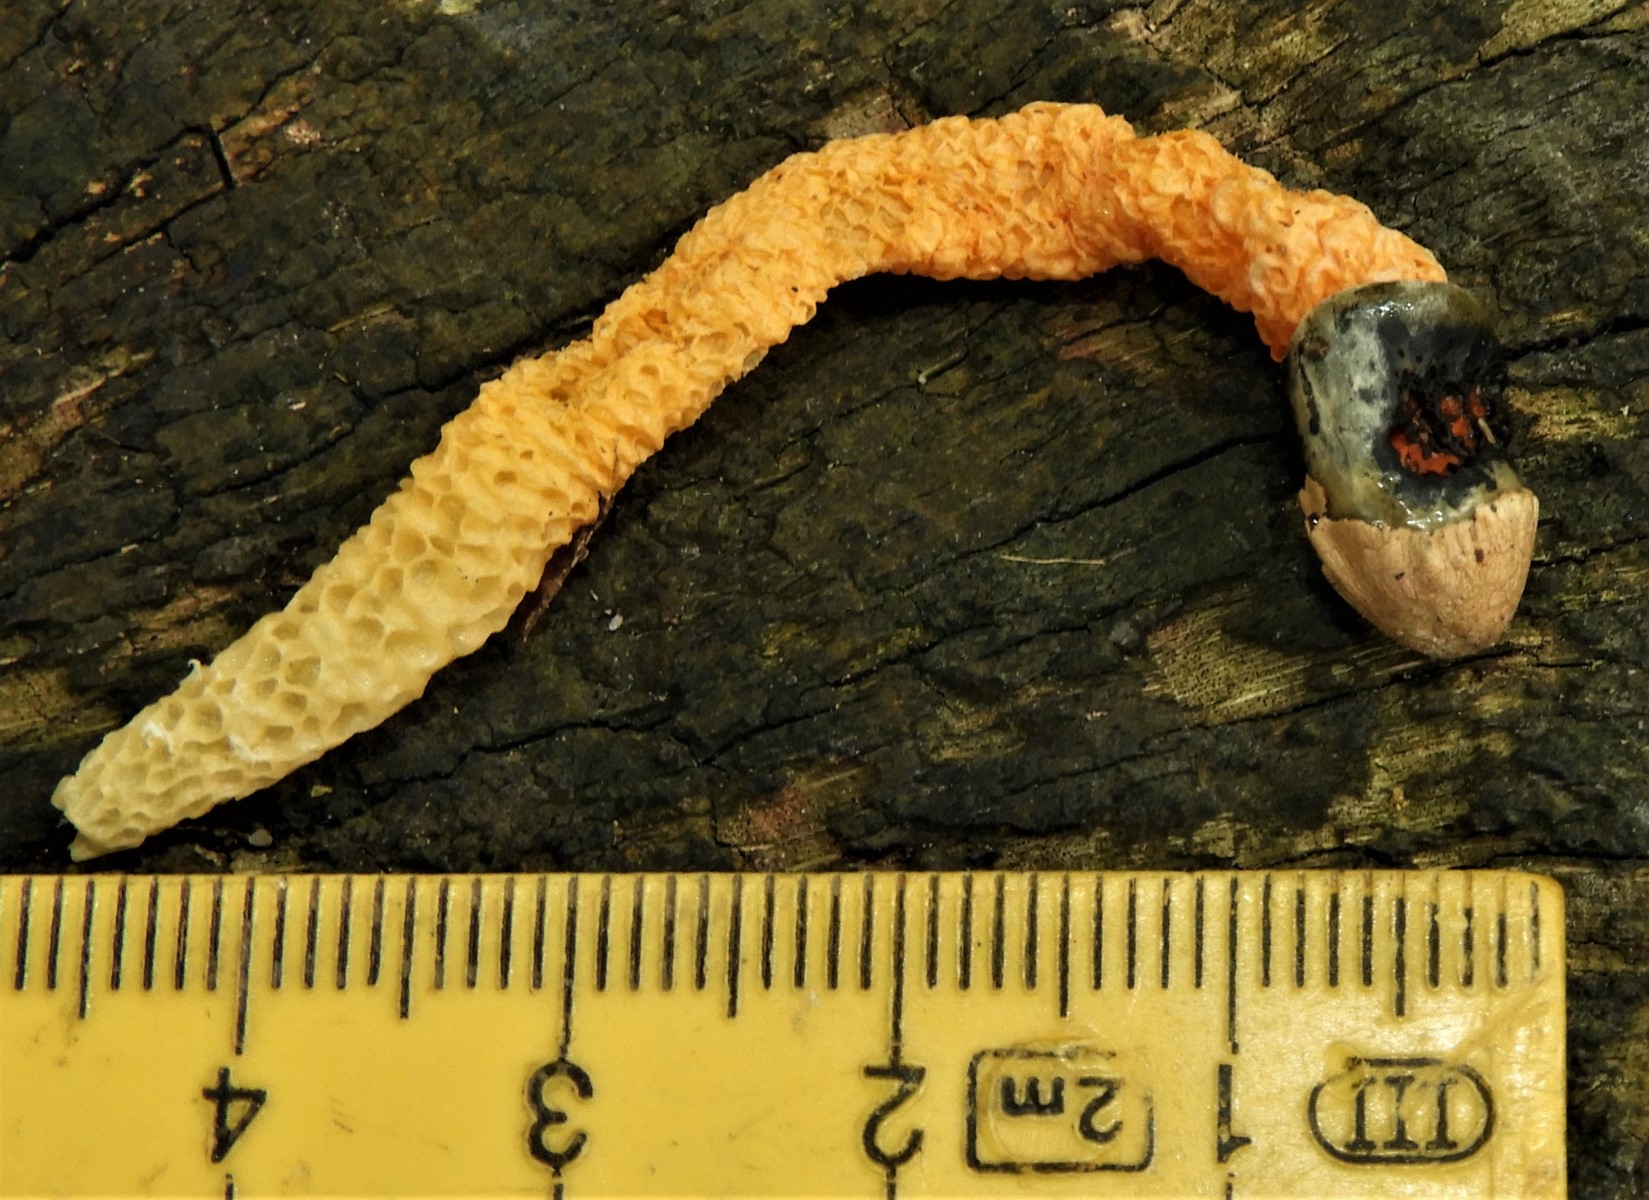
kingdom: Fungi
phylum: Basidiomycota
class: Agaricomycetes
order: Phallales
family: Phallaceae
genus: Mutinus
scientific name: Mutinus caninus
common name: hunde-stinksvamp
